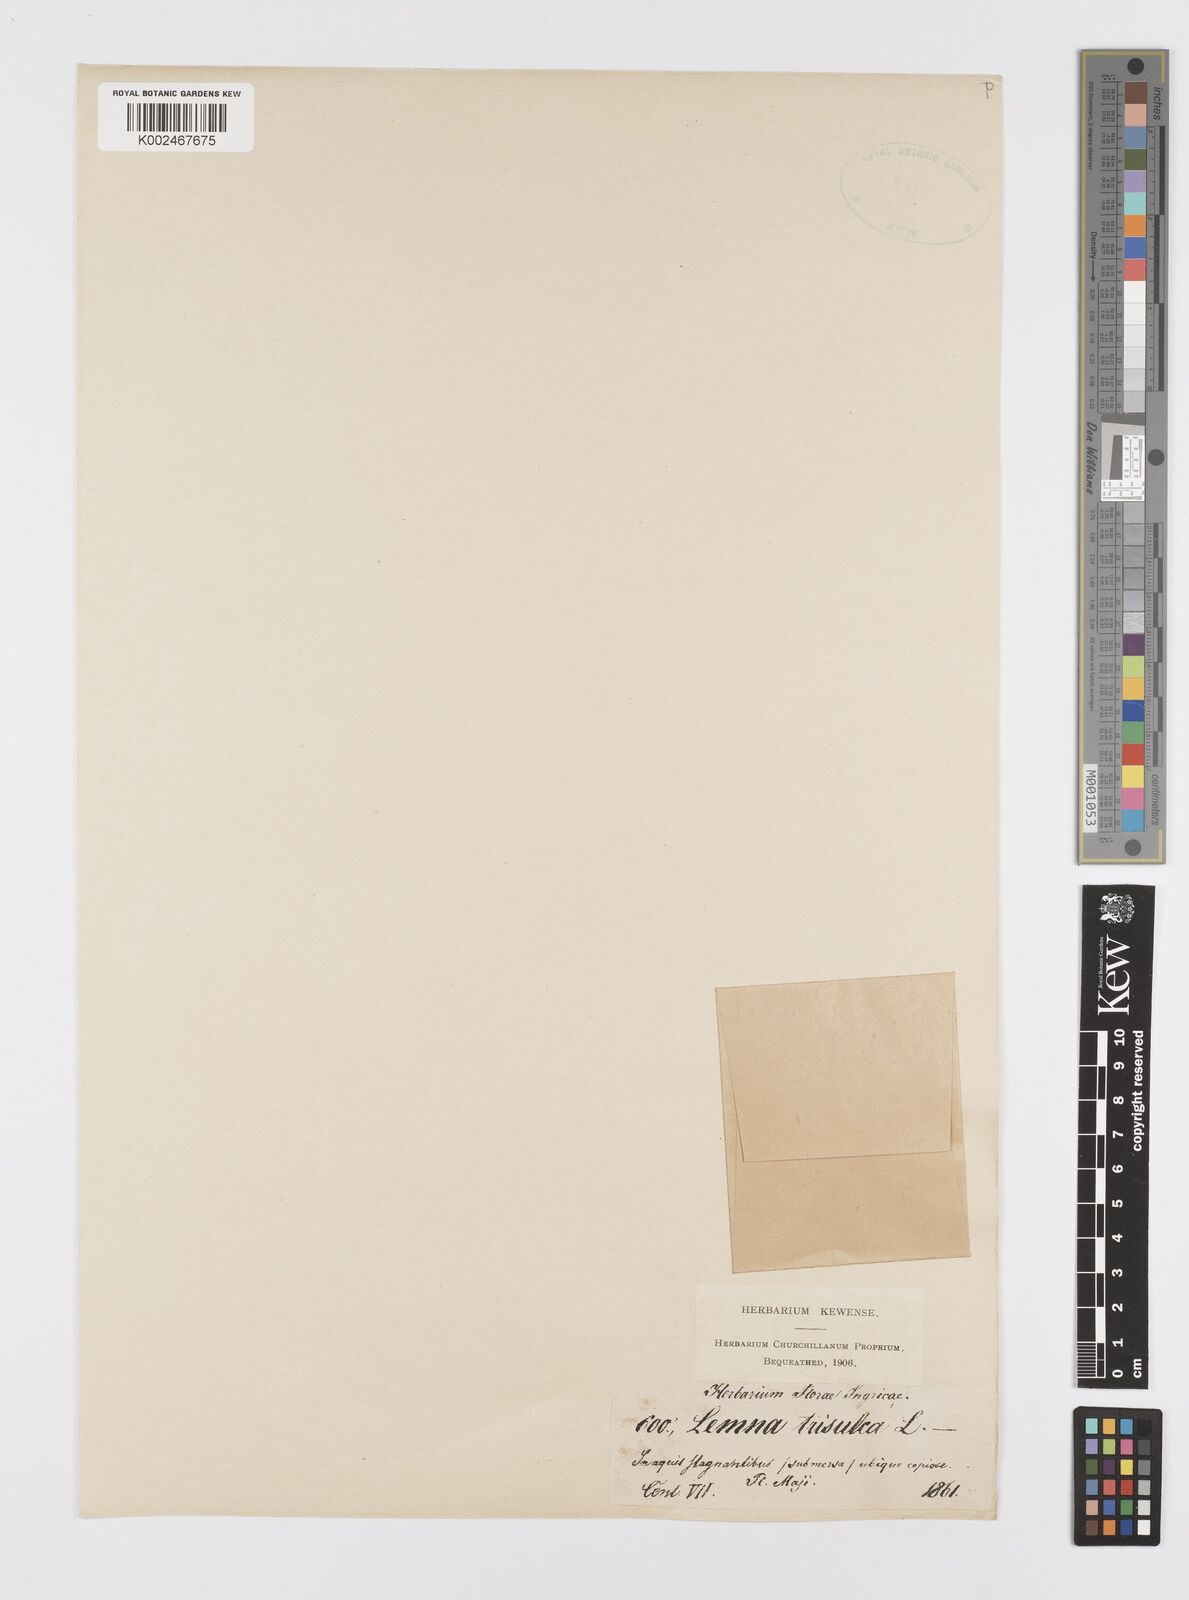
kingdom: Plantae
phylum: Tracheophyta
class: Liliopsida
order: Alismatales
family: Araceae
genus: Lemna
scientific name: Lemna trisulca
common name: Ivy-leaved duckweed
